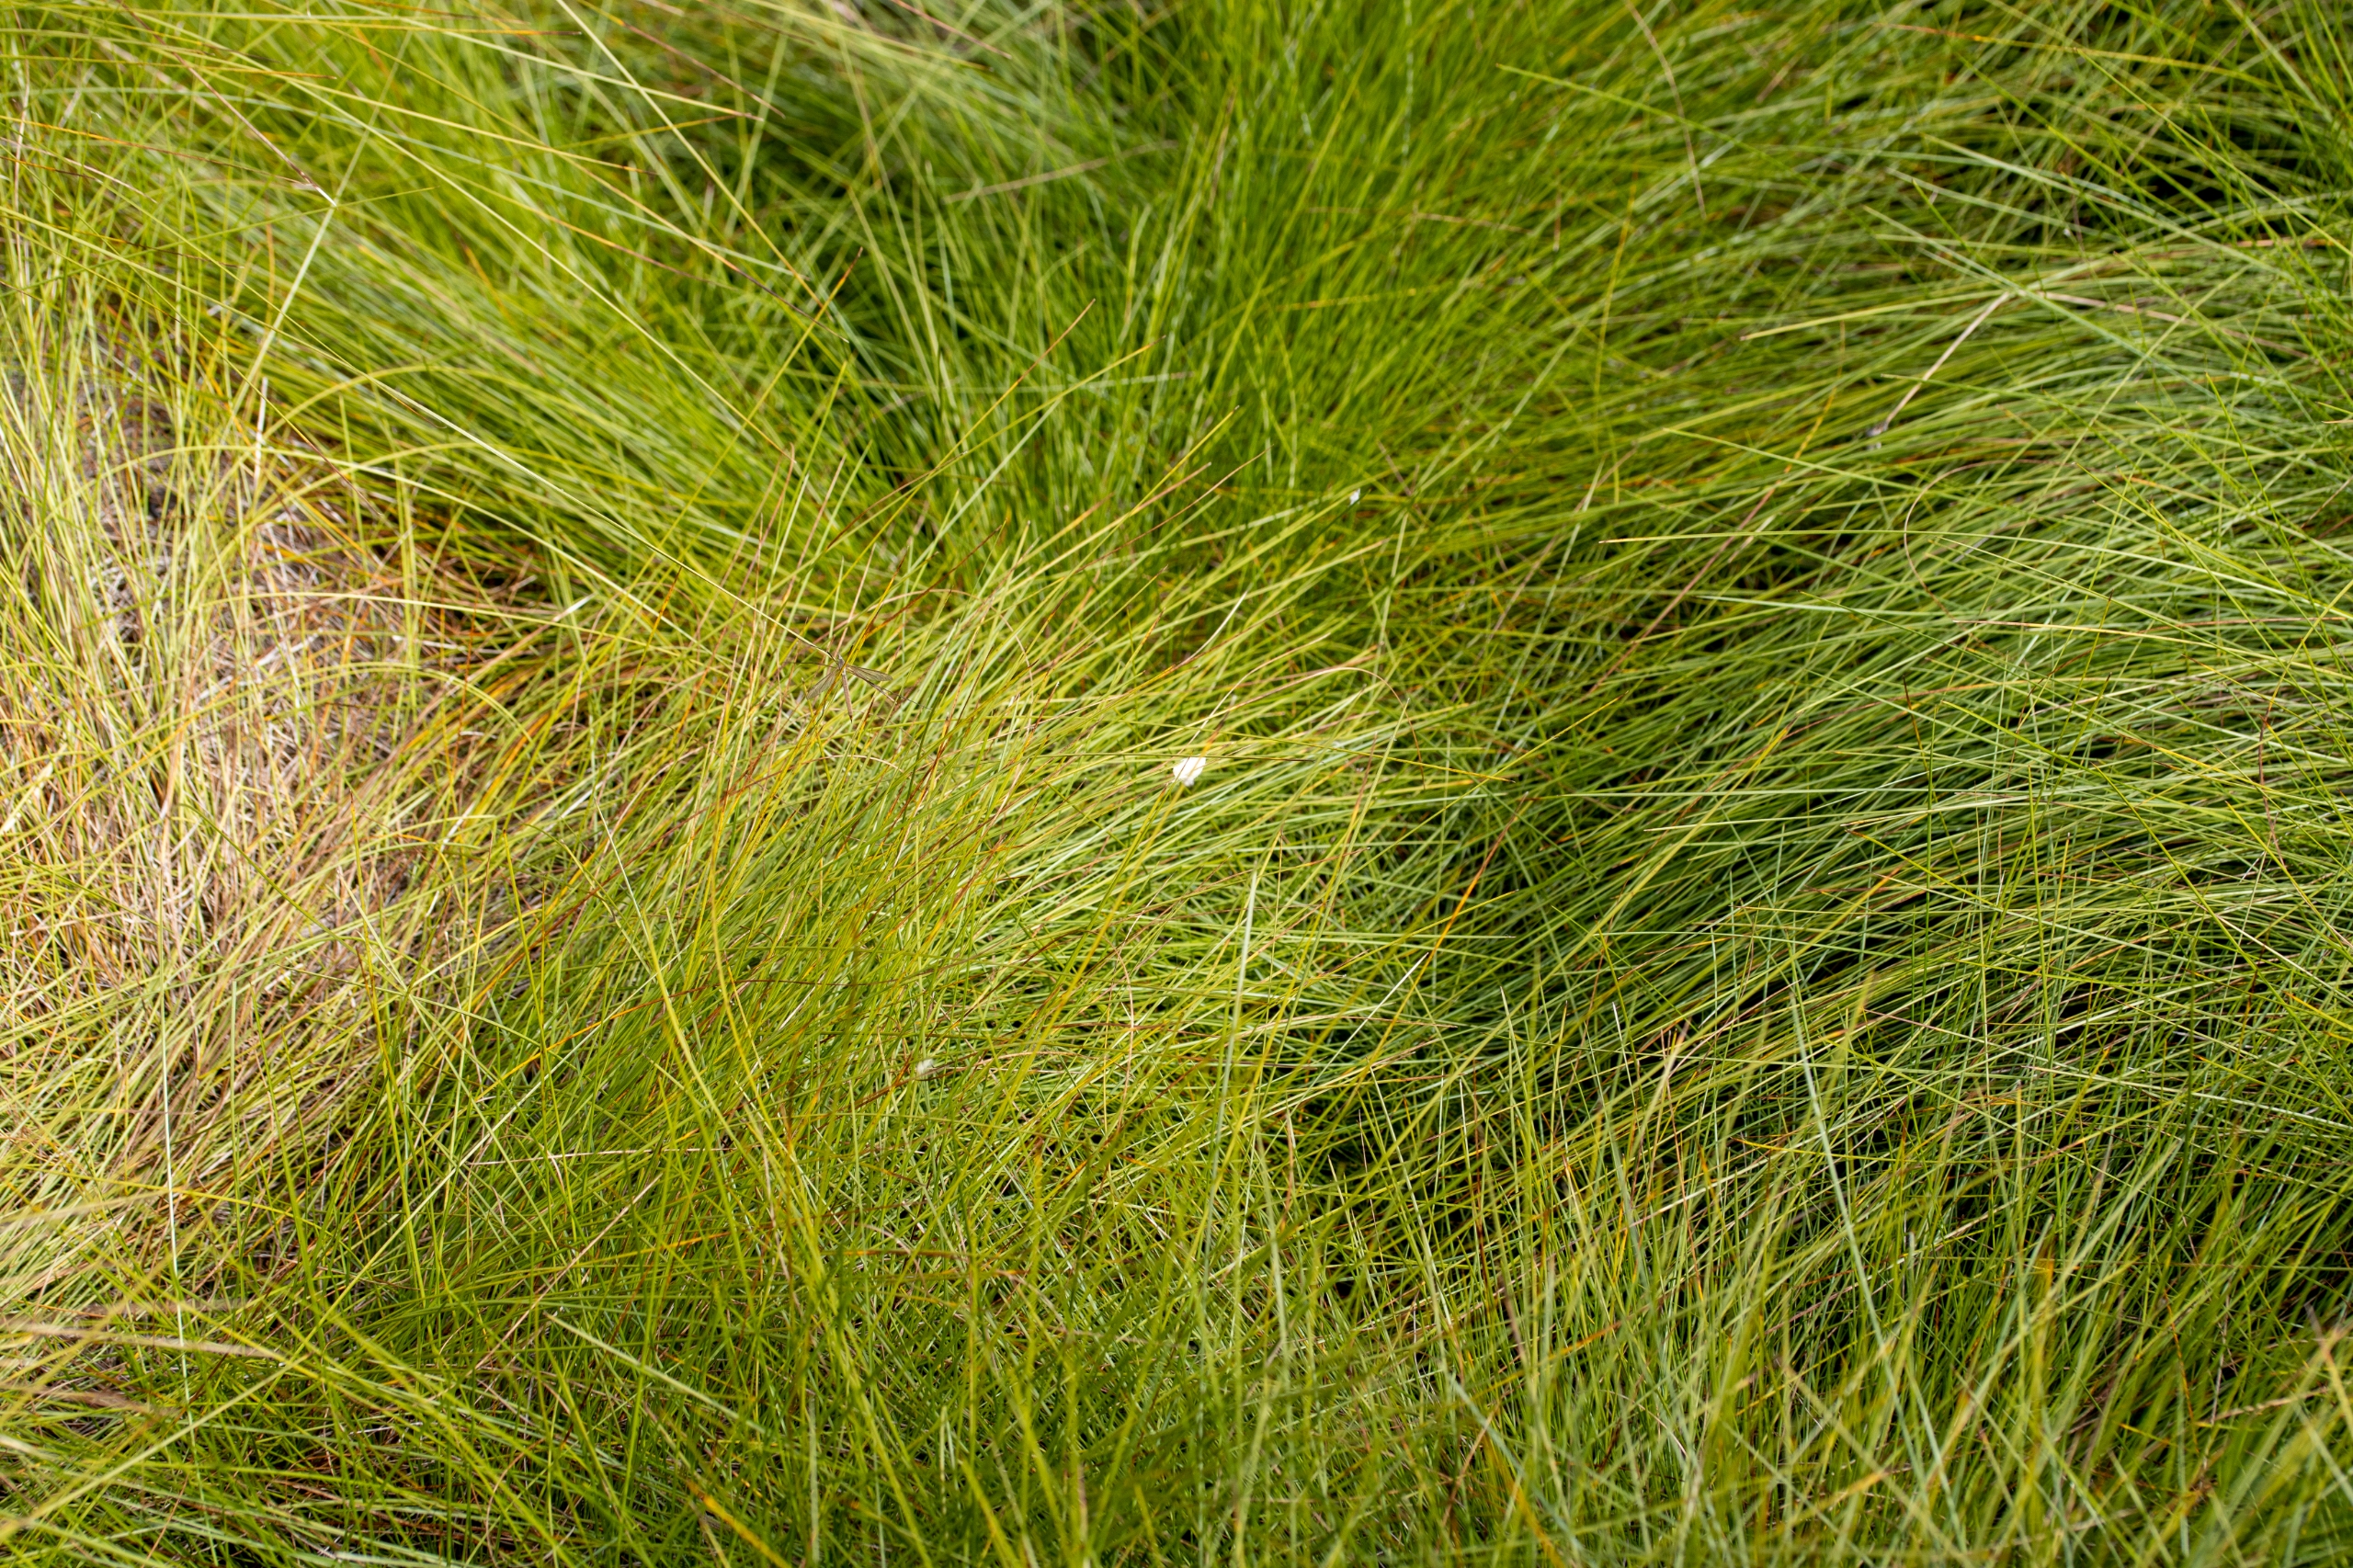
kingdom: Plantae
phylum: Tracheophyta
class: Liliopsida
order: Poales
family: Cyperaceae
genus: Eriophorum
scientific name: Eriophorum vaginatum
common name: Tue-kæruld
